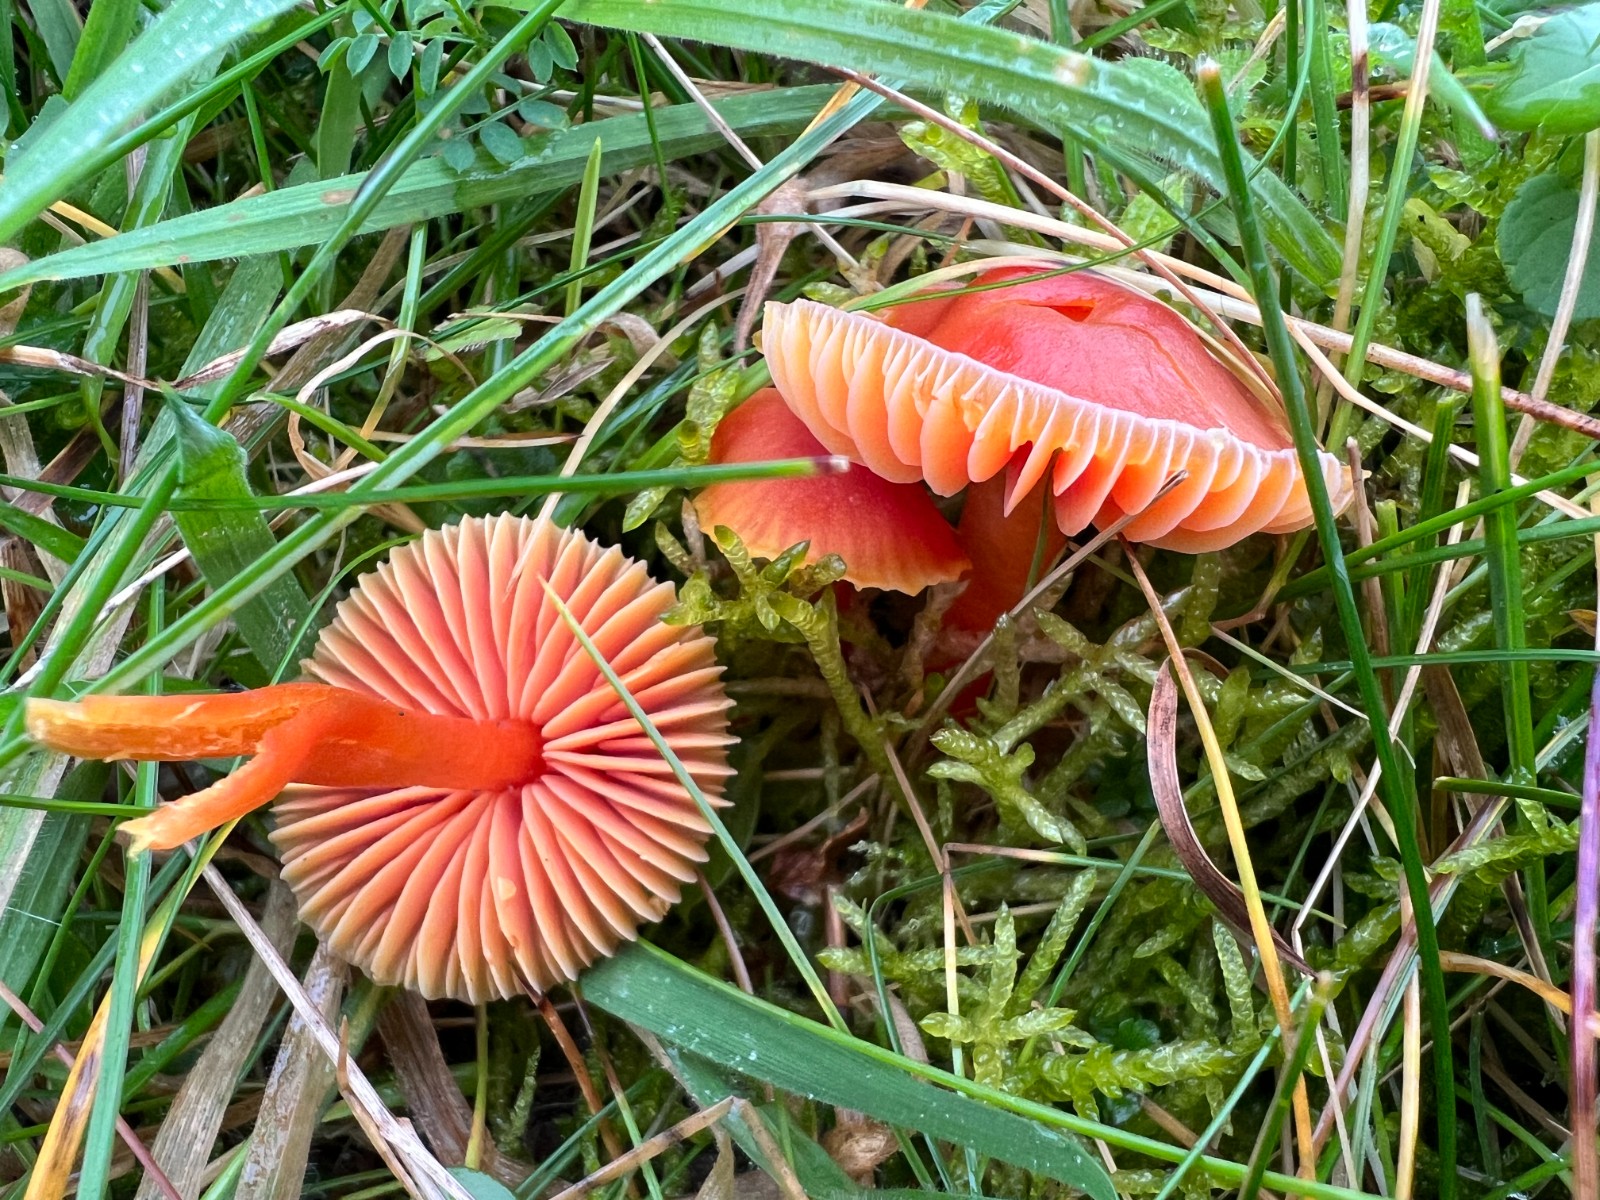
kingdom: Fungi
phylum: Basidiomycota
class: Agaricomycetes
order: Agaricales
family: Hygrophoraceae
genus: Hygrocybe
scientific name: Hygrocybe mucronella
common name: bitter vokshat
